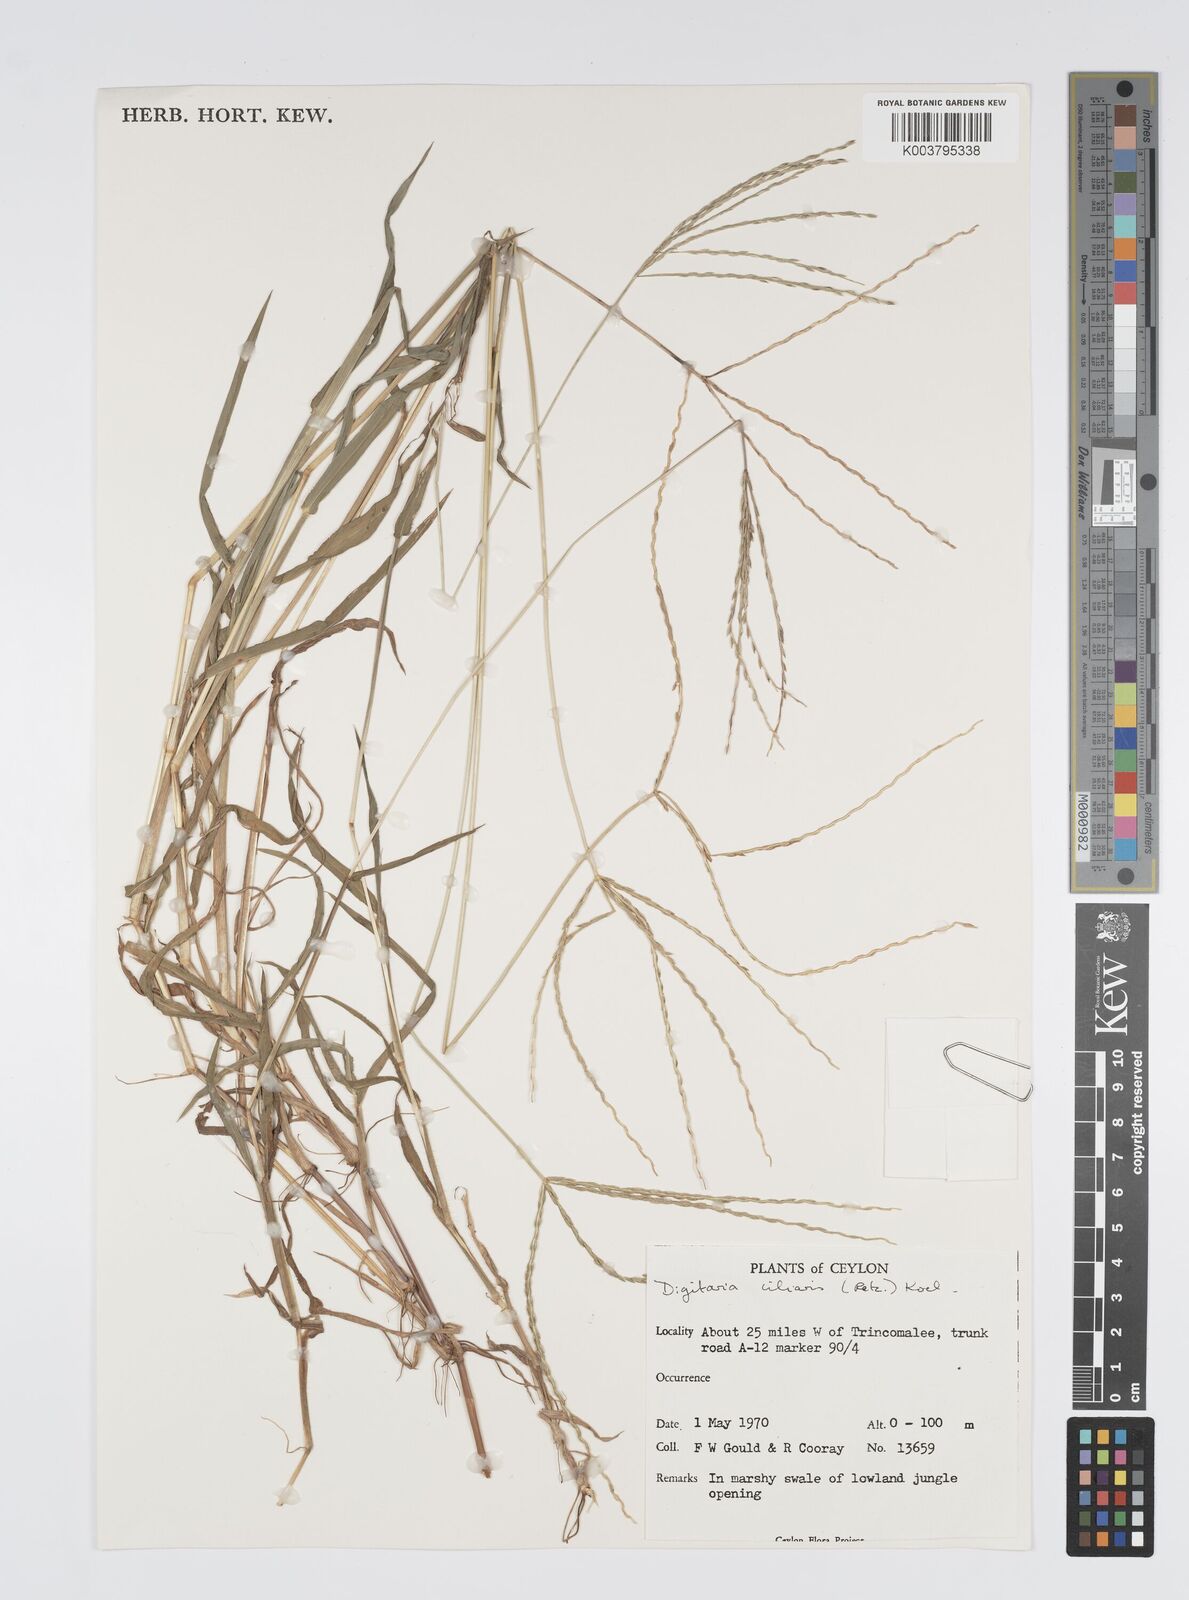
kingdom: Plantae
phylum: Tracheophyta
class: Liliopsida
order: Poales
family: Poaceae
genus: Digitaria
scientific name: Digitaria ciliaris
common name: Tropical finger-grass
